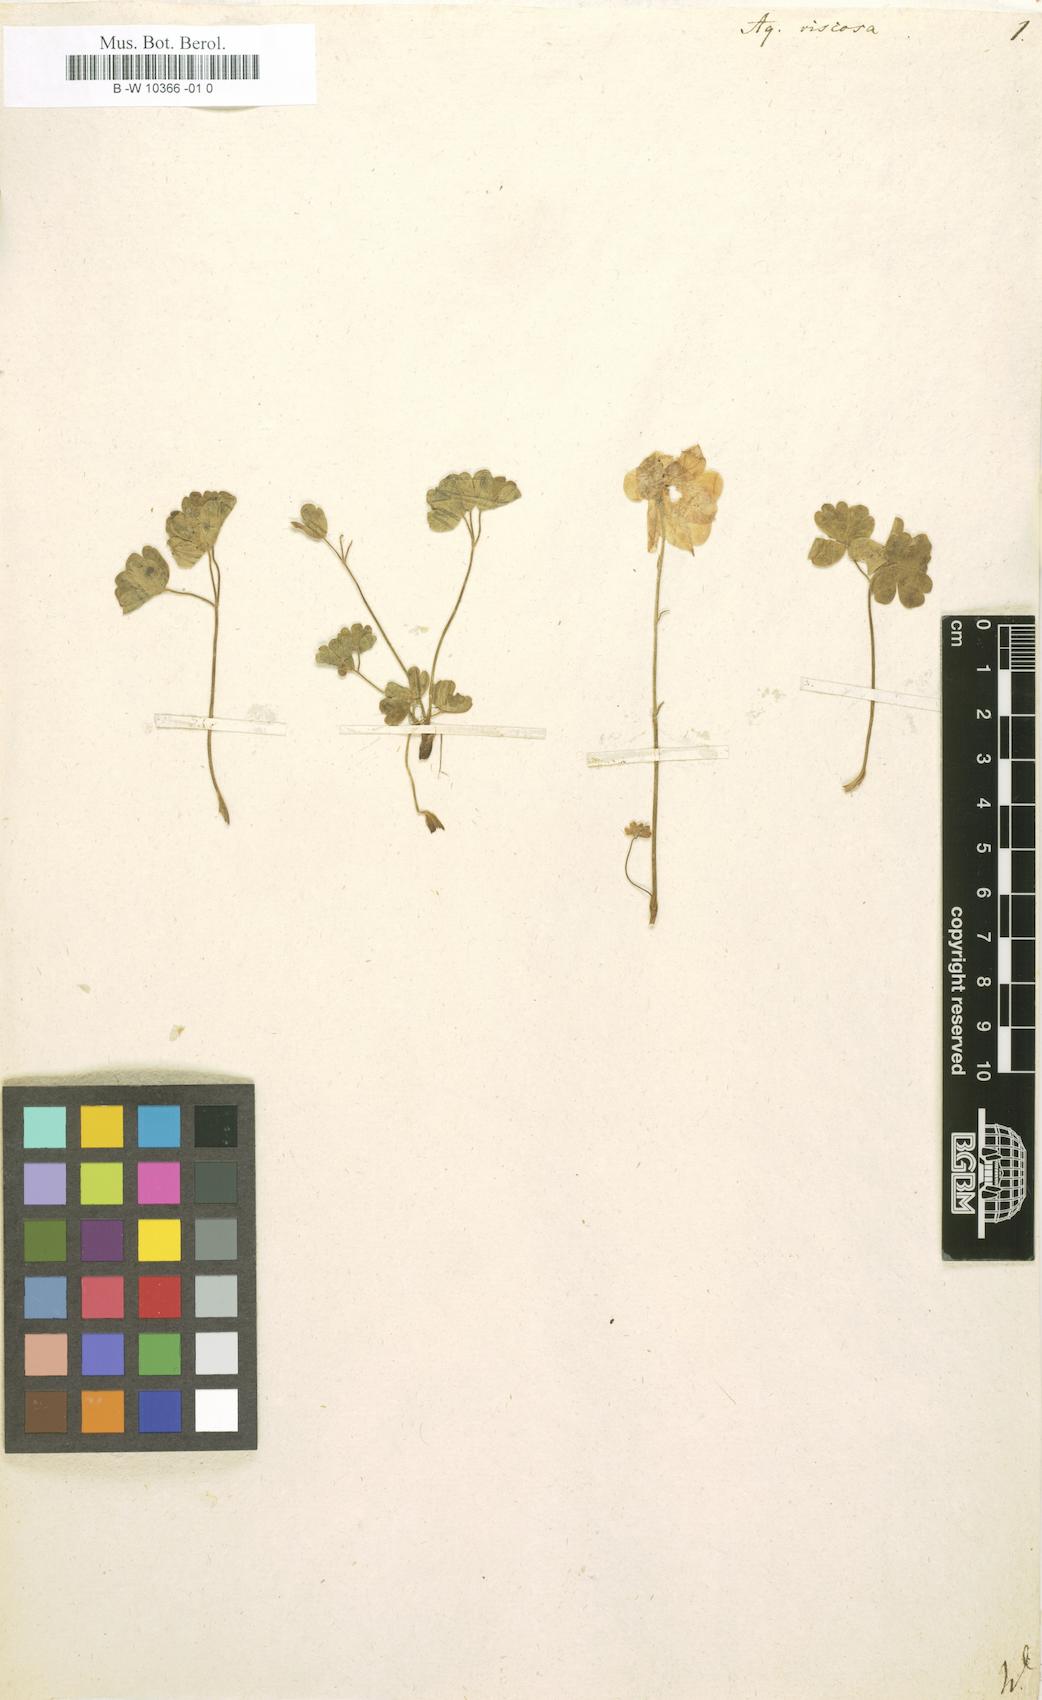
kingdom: Plantae
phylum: Tracheophyta
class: Magnoliopsida
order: Ranunculales
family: Ranunculaceae
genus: Aquilegia
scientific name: Aquilegia viscosa
